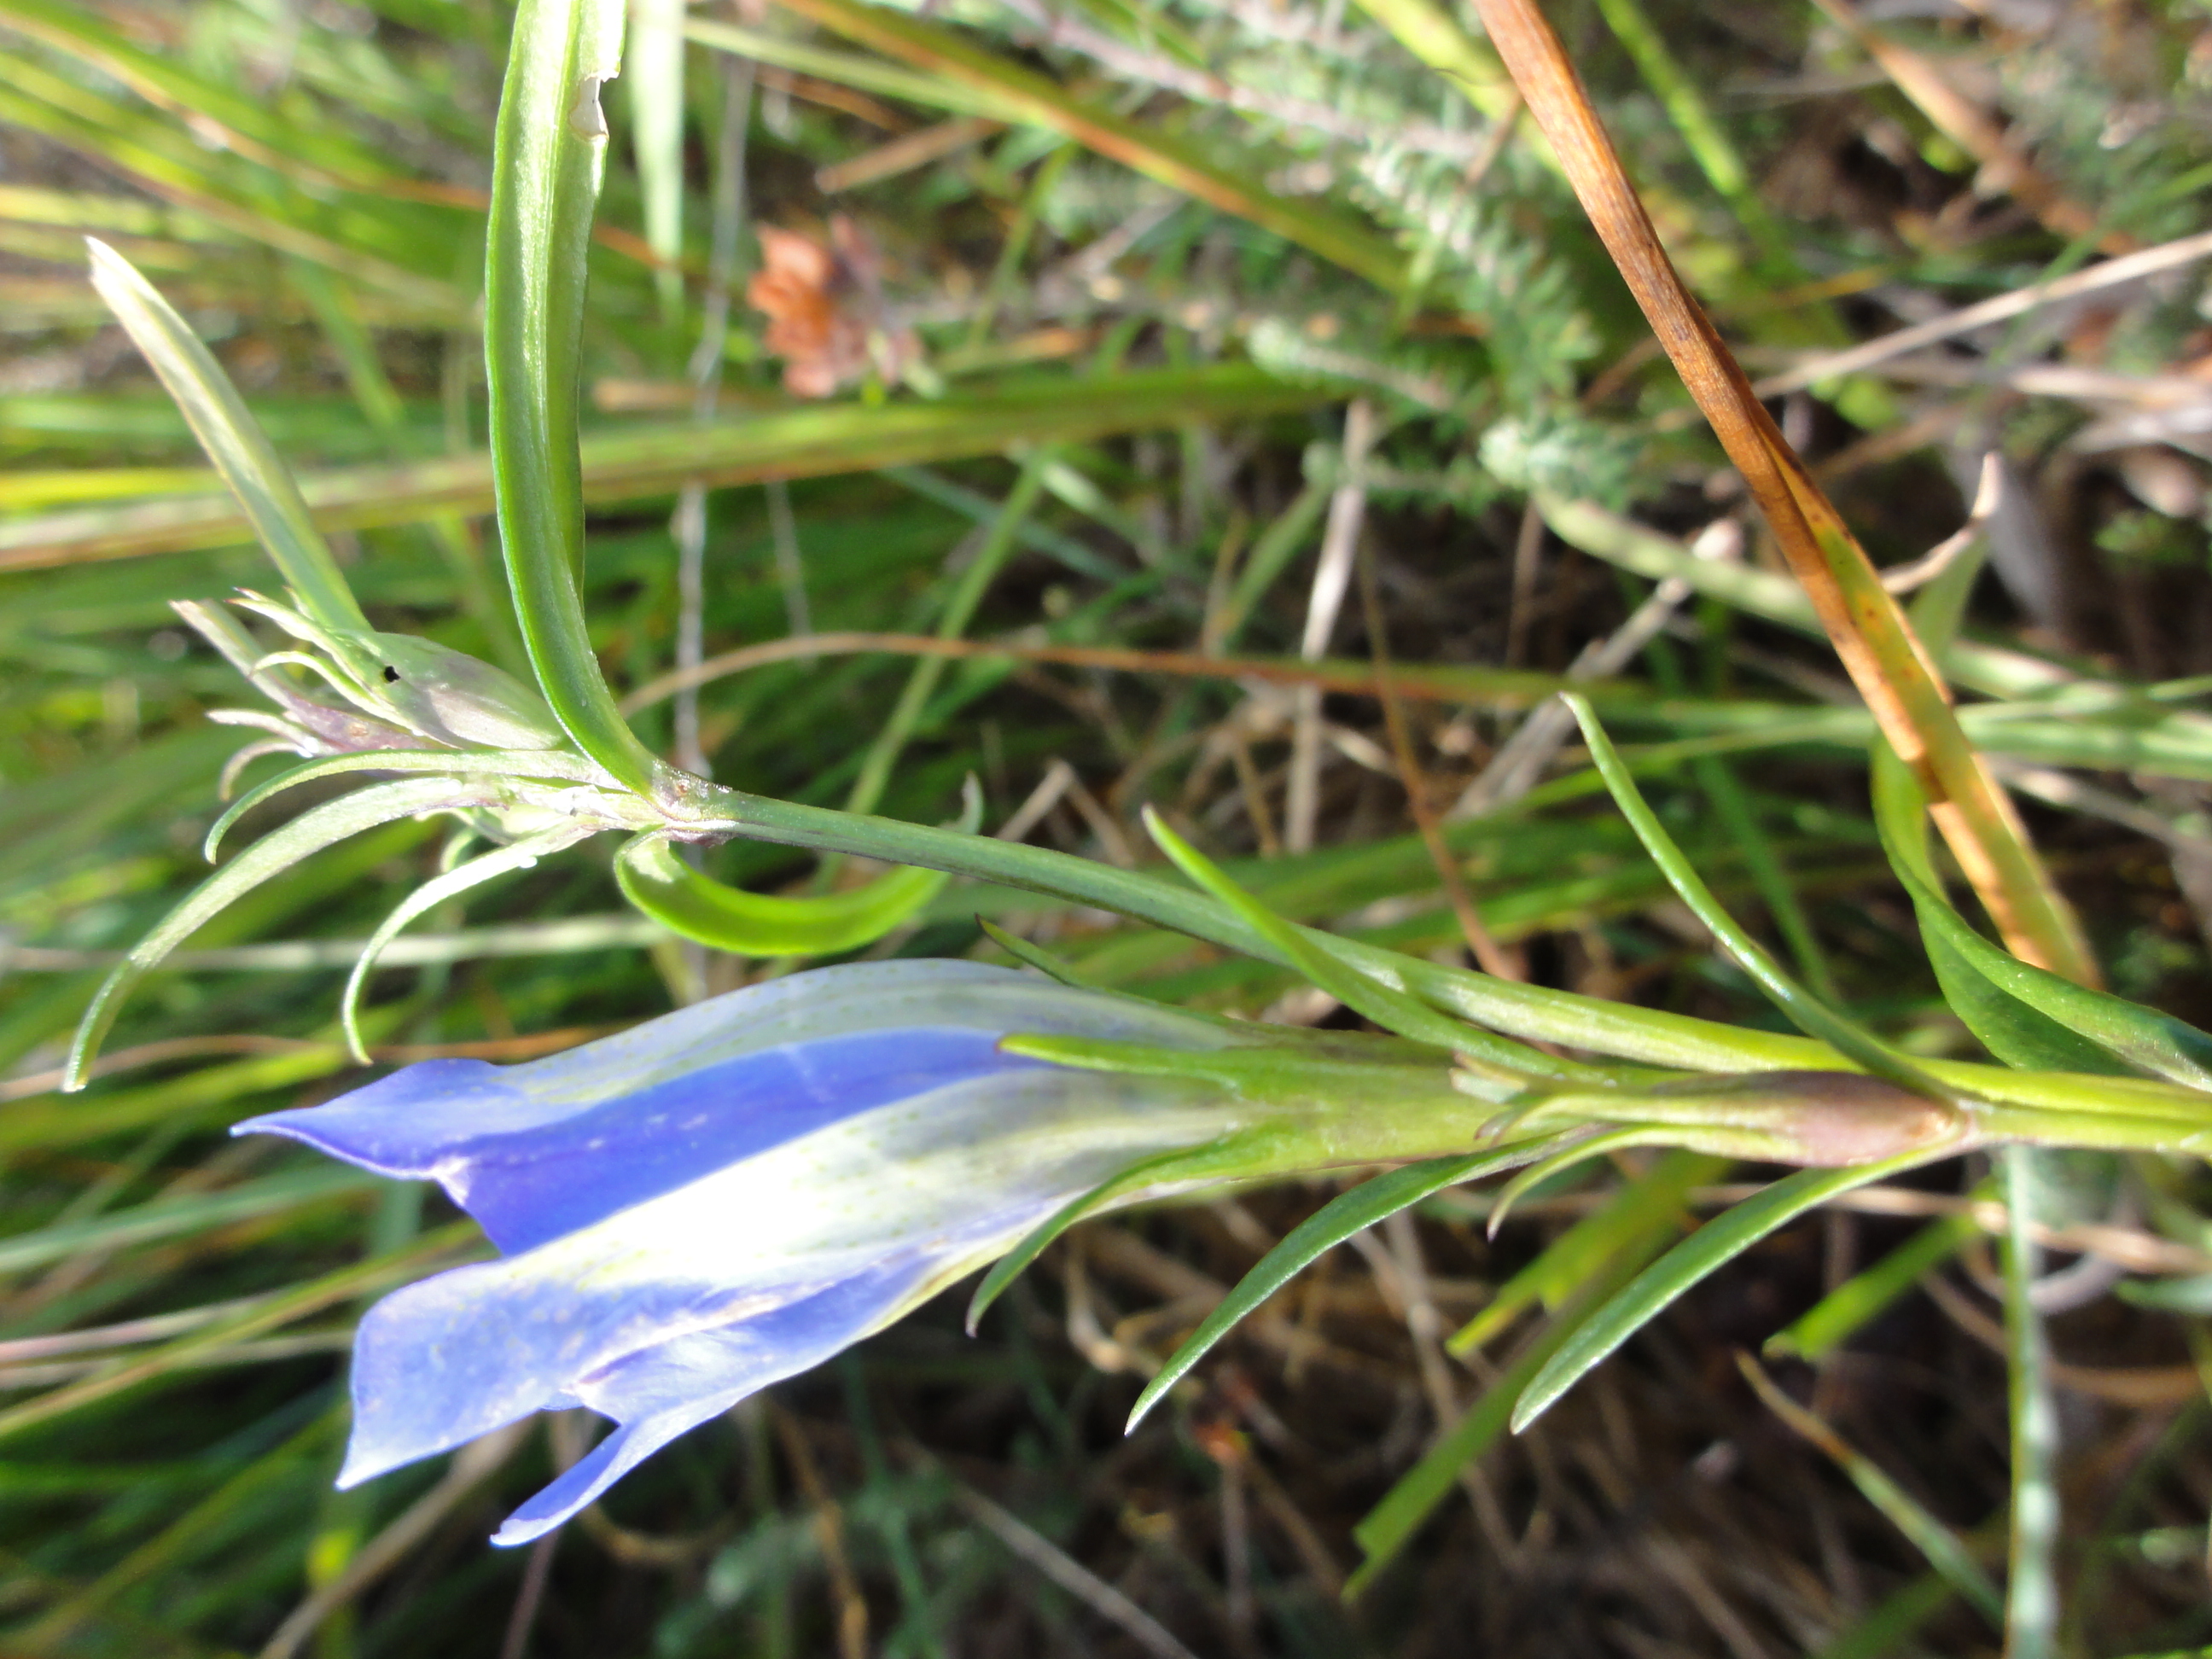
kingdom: Animalia
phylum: Arthropoda
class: Insecta
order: Lepidoptera
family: Lycaenidae
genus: Maculinea
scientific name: Maculinea alcon
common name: Ensianblåfugl
